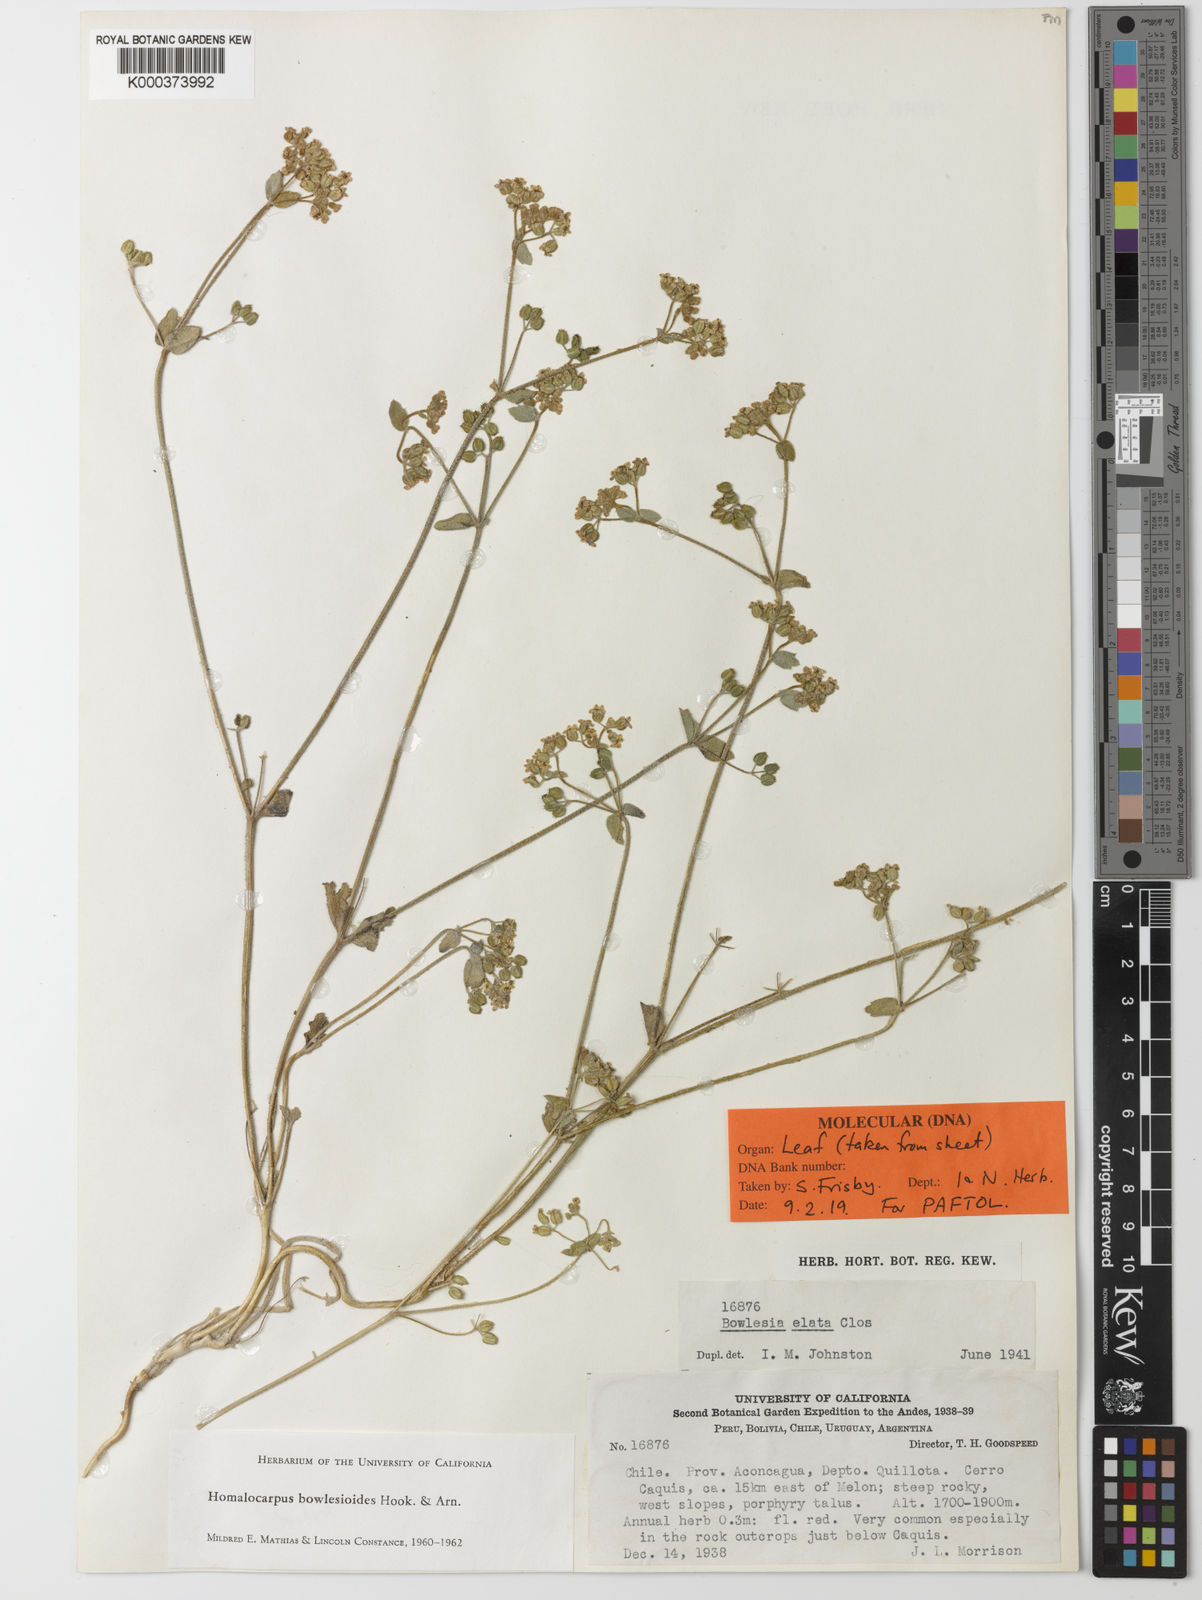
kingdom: Plantae
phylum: Tracheophyta
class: Magnoliopsida
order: Apiales
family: Apiaceae
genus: Homalocarpus
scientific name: Homalocarpus bowlesioides
